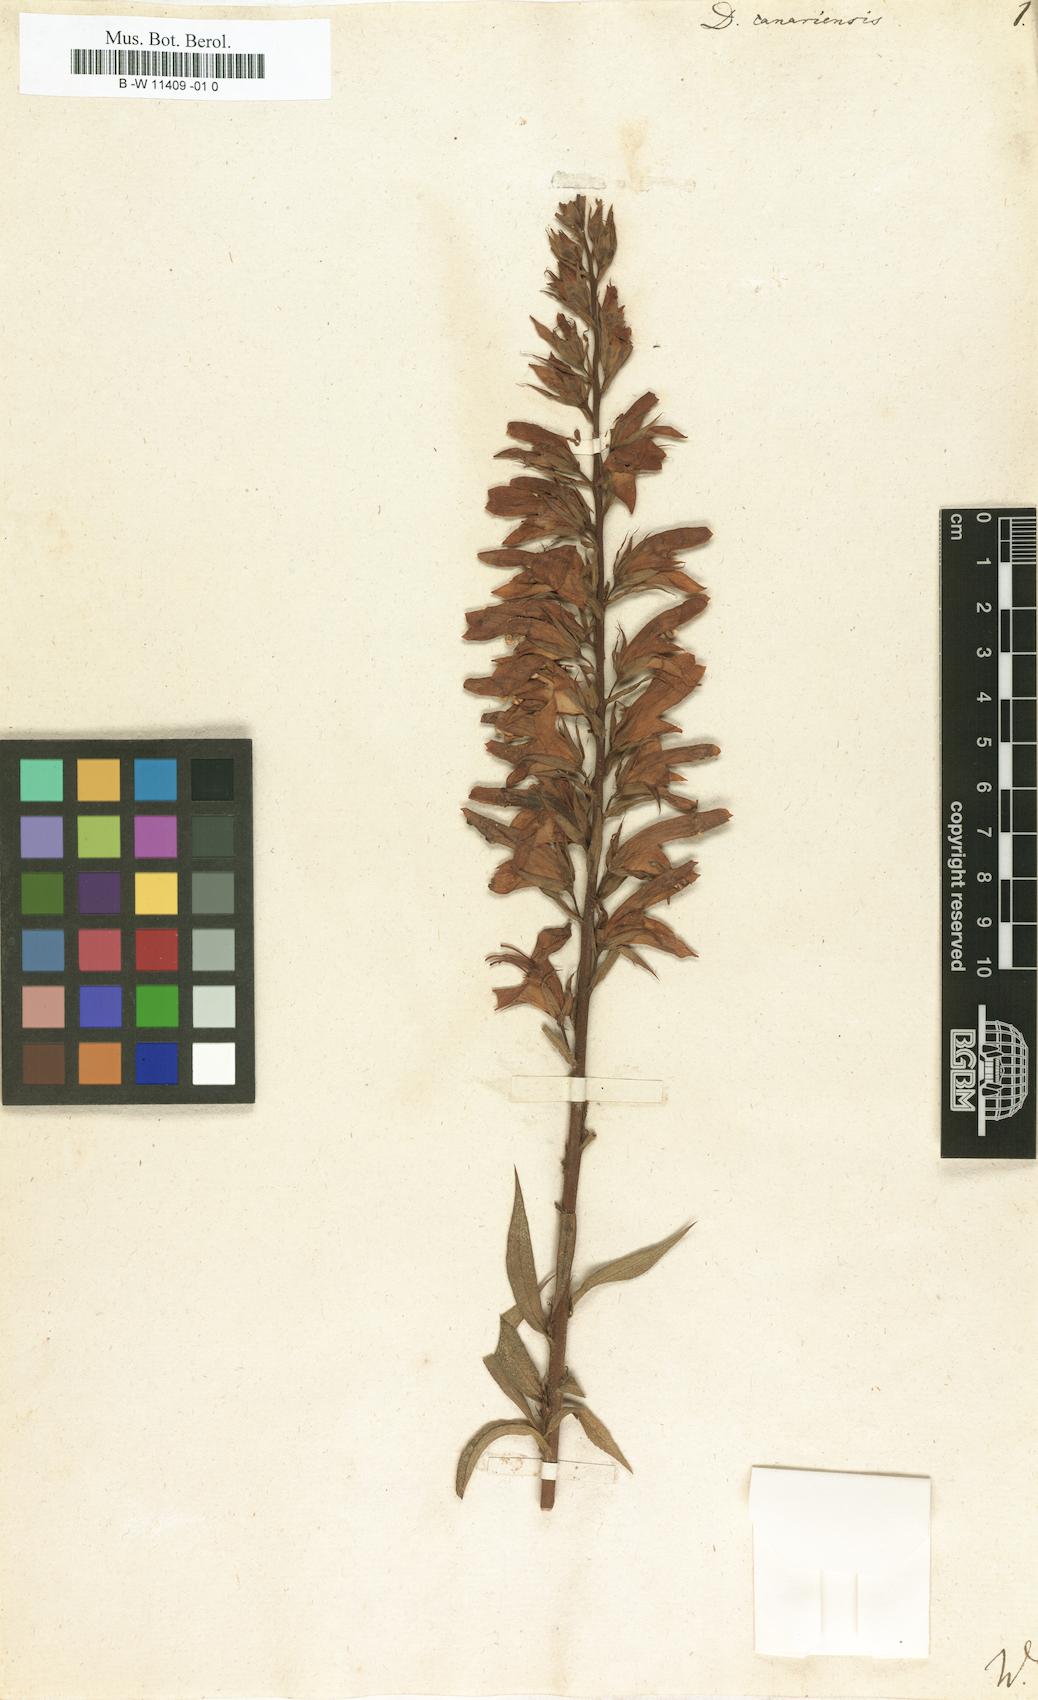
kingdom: Plantae
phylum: Tracheophyta
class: Magnoliopsida
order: Lamiales
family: Plantaginaceae
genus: Digitalis
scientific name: Digitalis canariensis
